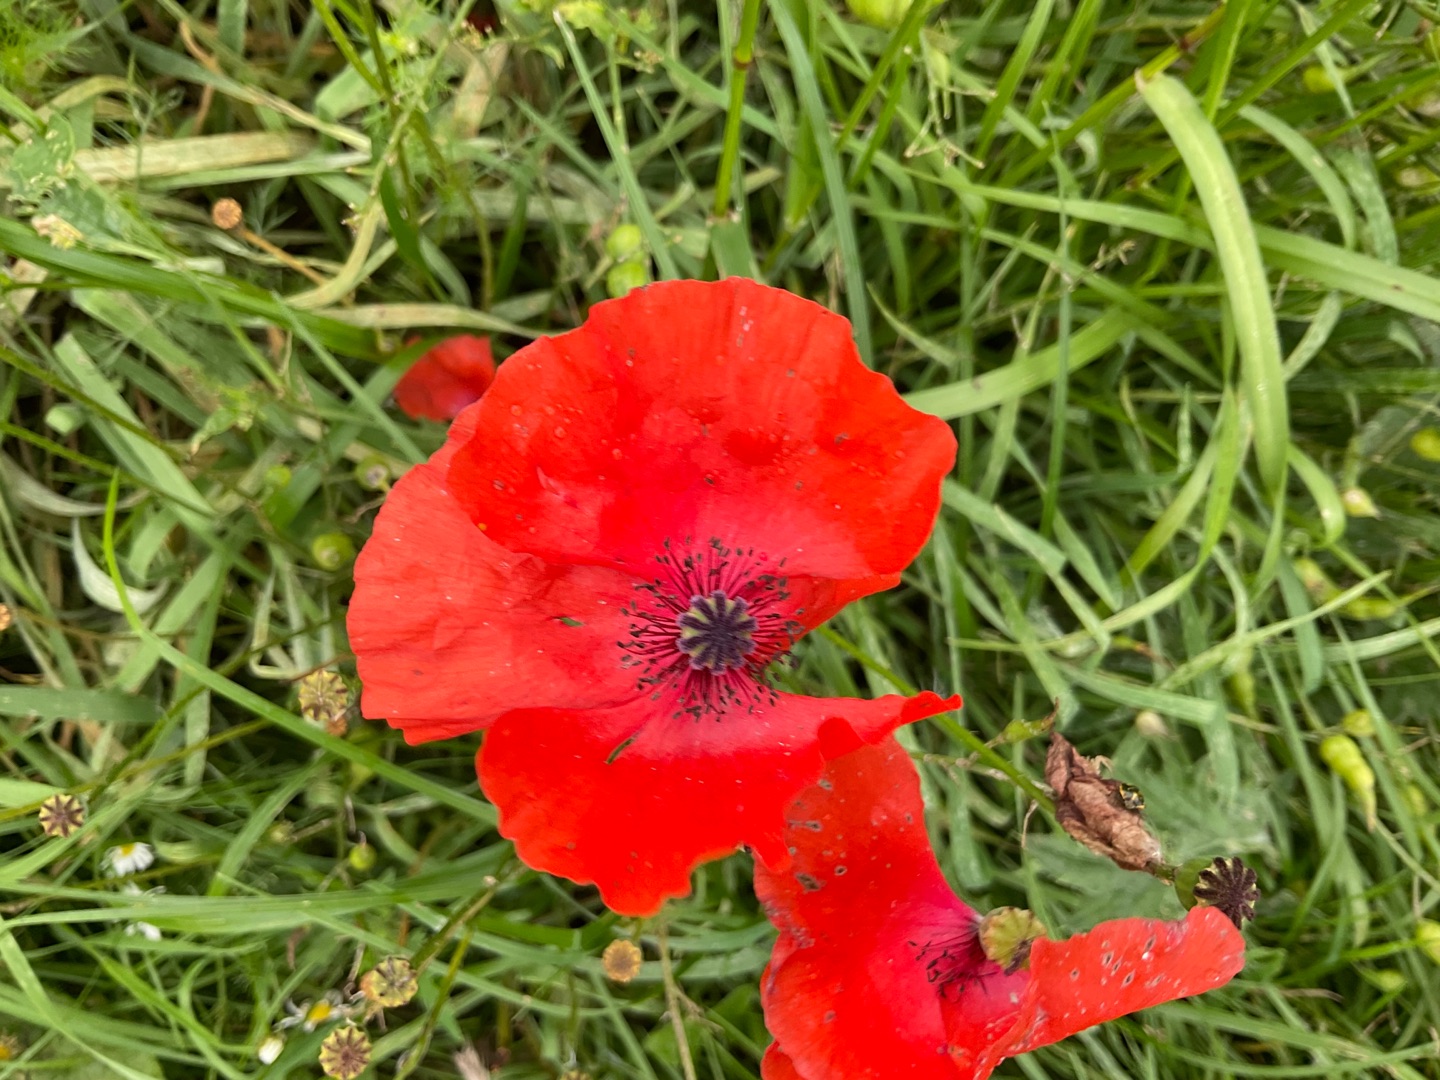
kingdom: Plantae
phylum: Tracheophyta
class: Magnoliopsida
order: Ranunculales
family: Papaveraceae
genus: Papaver
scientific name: Papaver rhoeas
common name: Korn-valmue
